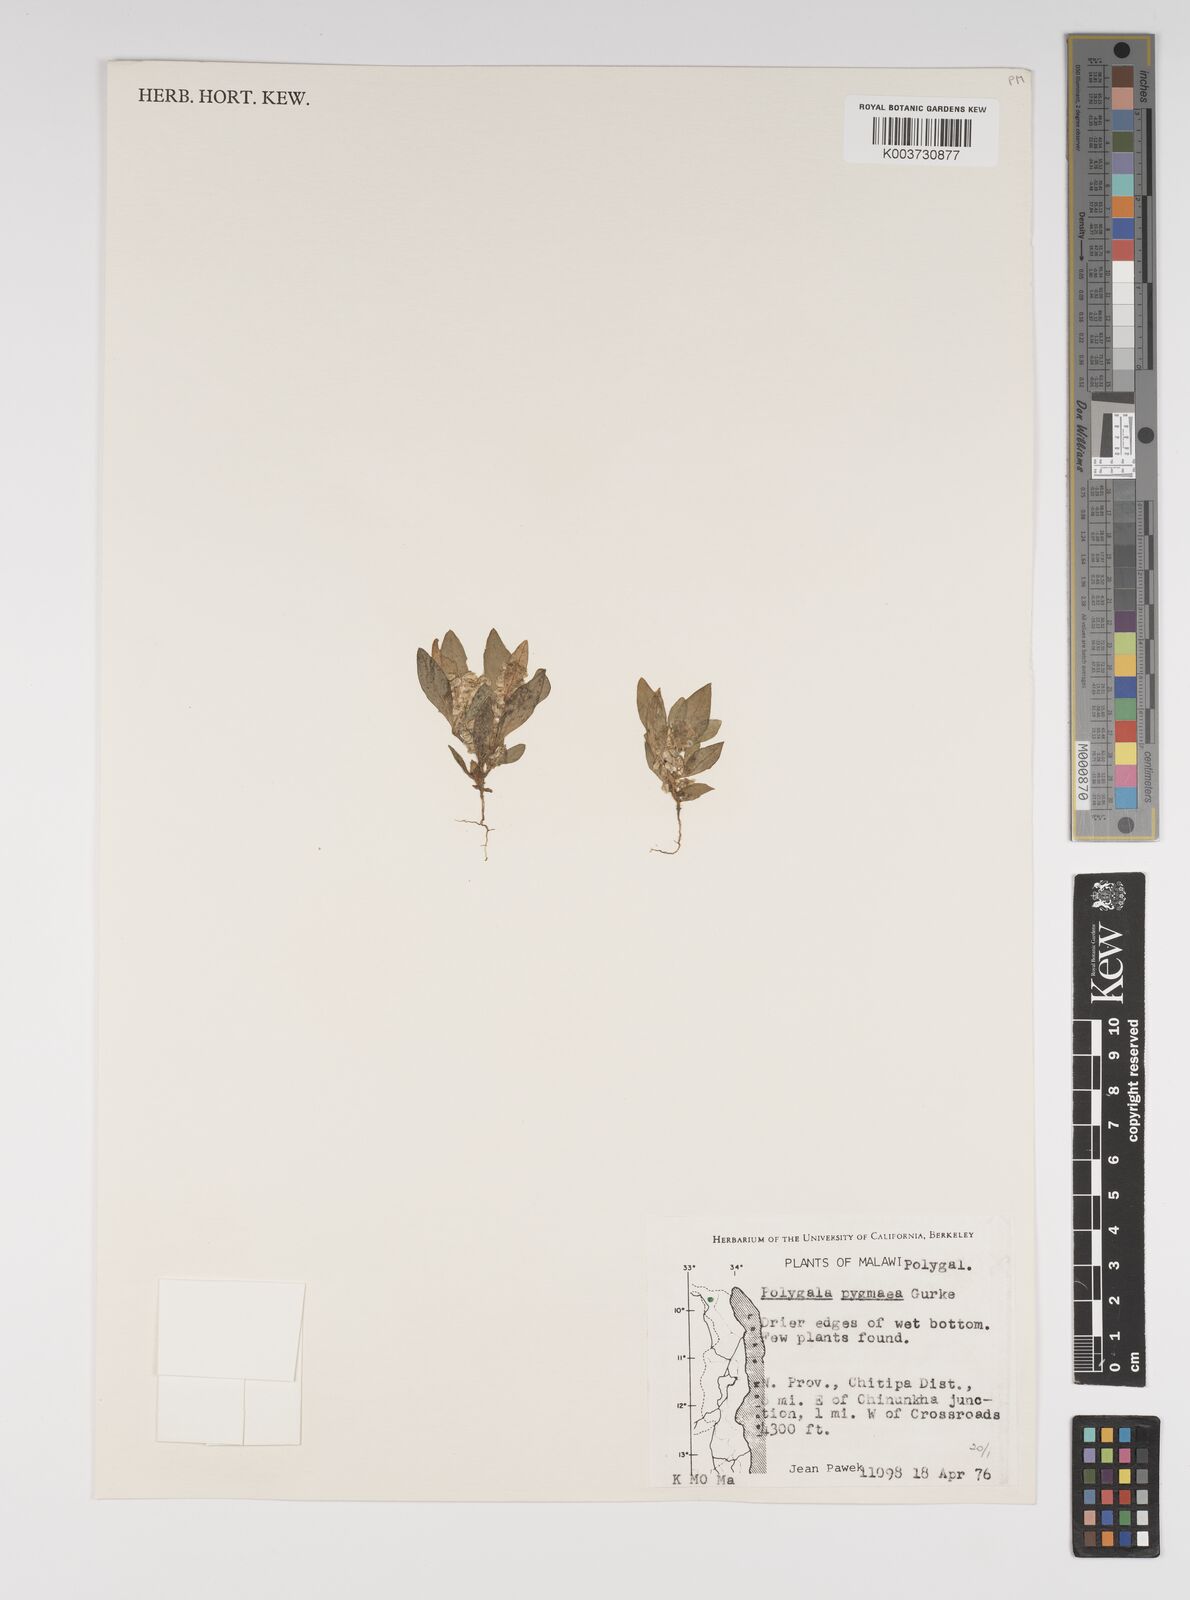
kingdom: Plantae
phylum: Tracheophyta
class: Magnoliopsida
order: Fabales
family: Polygalaceae
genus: Polygala
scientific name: Polygala welwitschii
